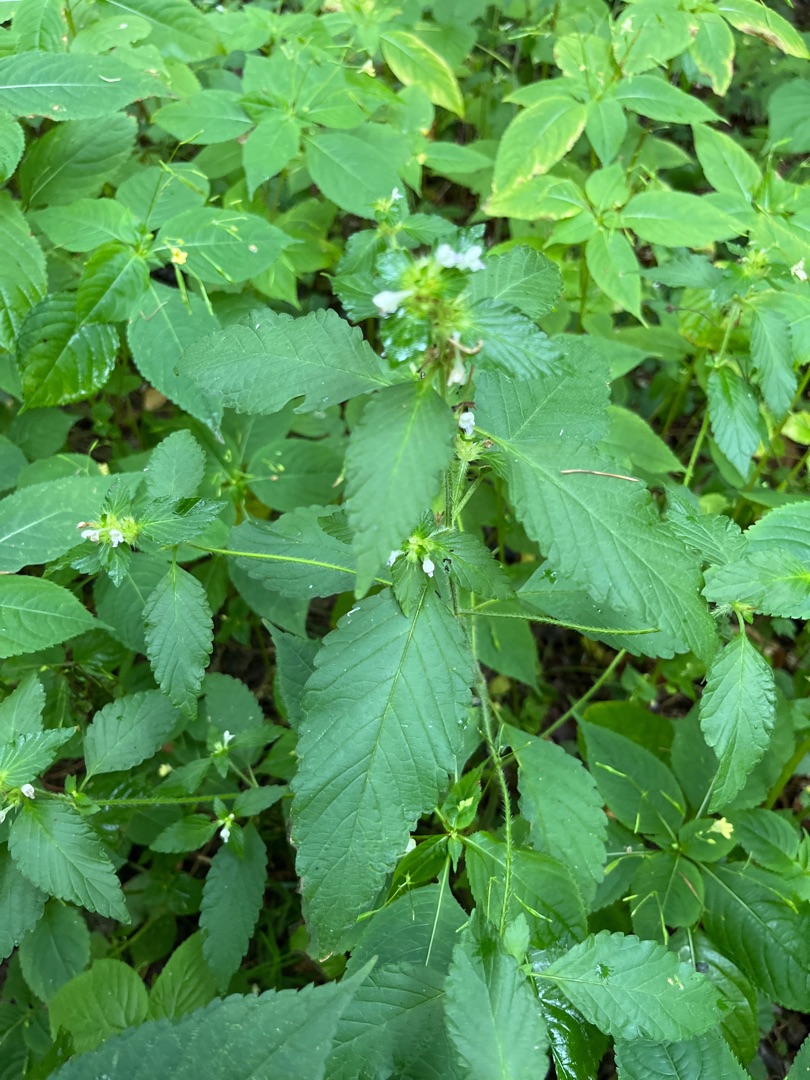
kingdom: Plantae
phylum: Tracheophyta
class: Magnoliopsida
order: Lamiales
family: Lamiaceae
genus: Galeopsis
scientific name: Galeopsis
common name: Hanekroslægten
